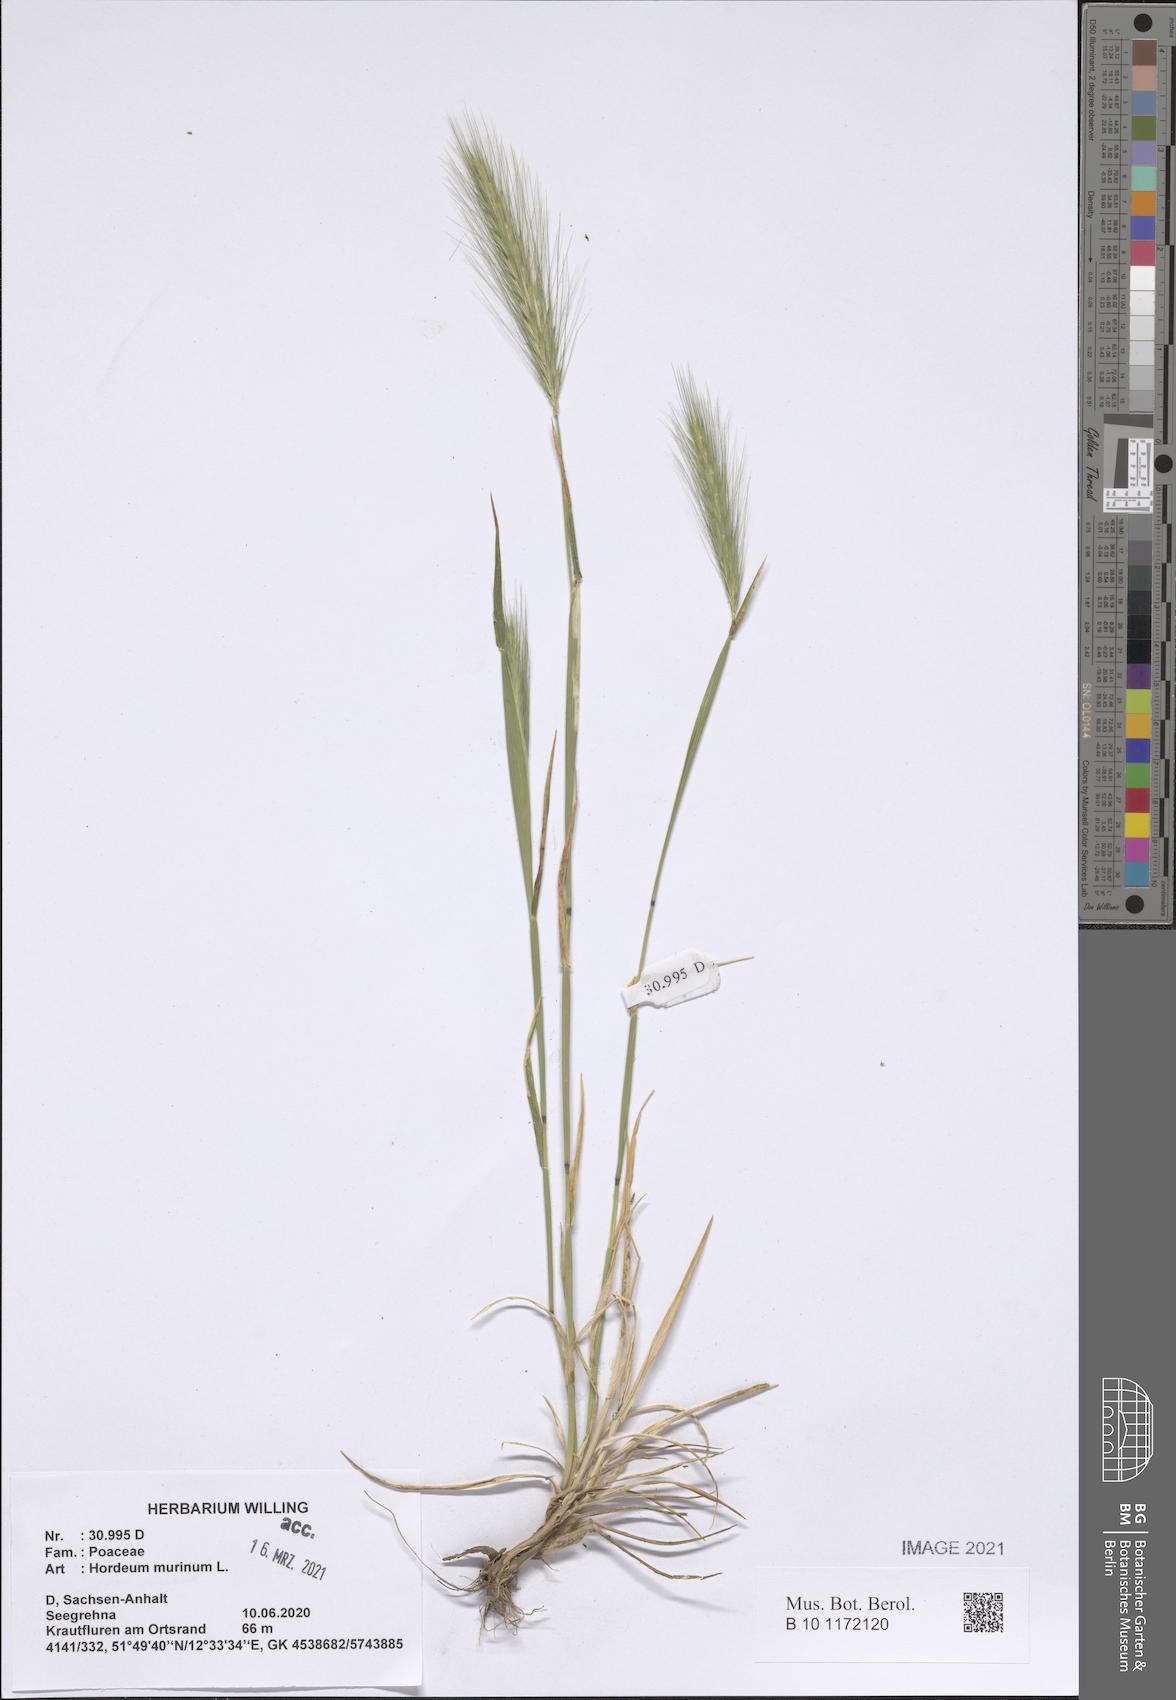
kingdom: Plantae
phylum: Tracheophyta
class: Liliopsida
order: Poales
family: Poaceae
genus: Hordeum
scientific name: Hordeum murinum
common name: Wall barley
